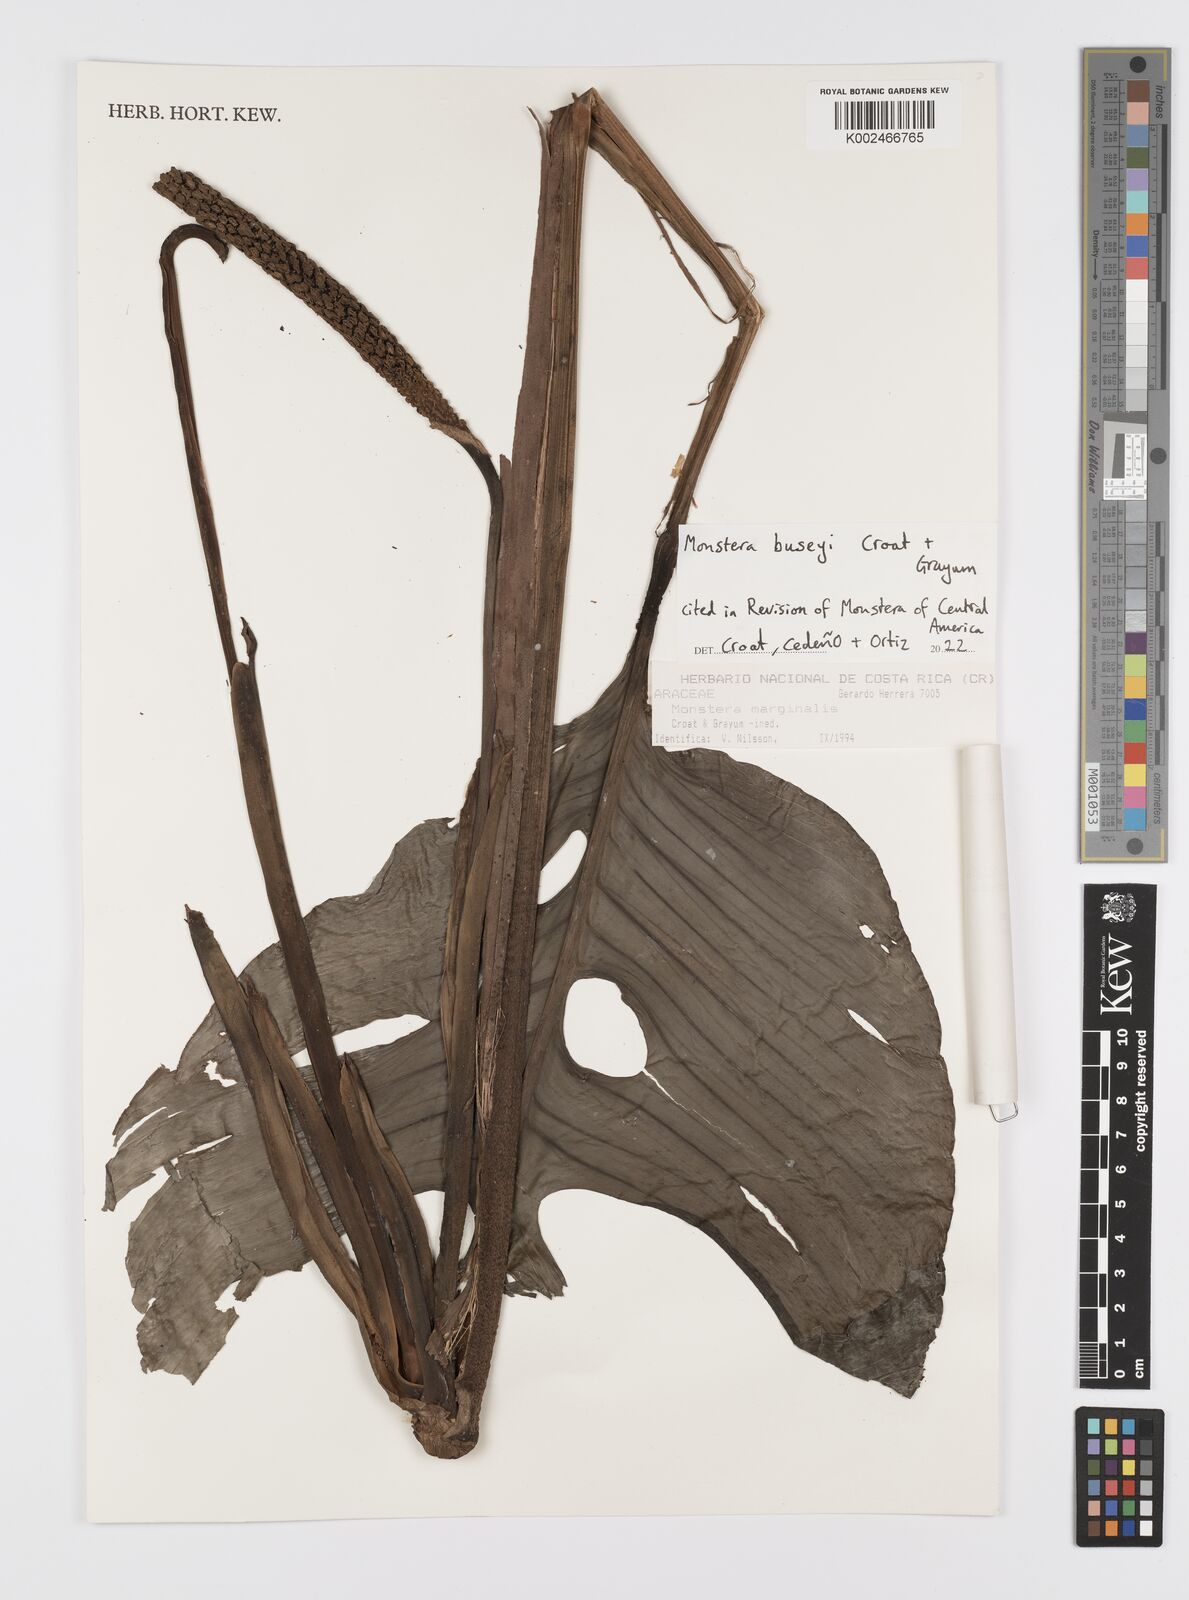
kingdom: Plantae
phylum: Tracheophyta
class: Liliopsida
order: Alismatales
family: Araceae
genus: Monstera
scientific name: Monstera buseyi
